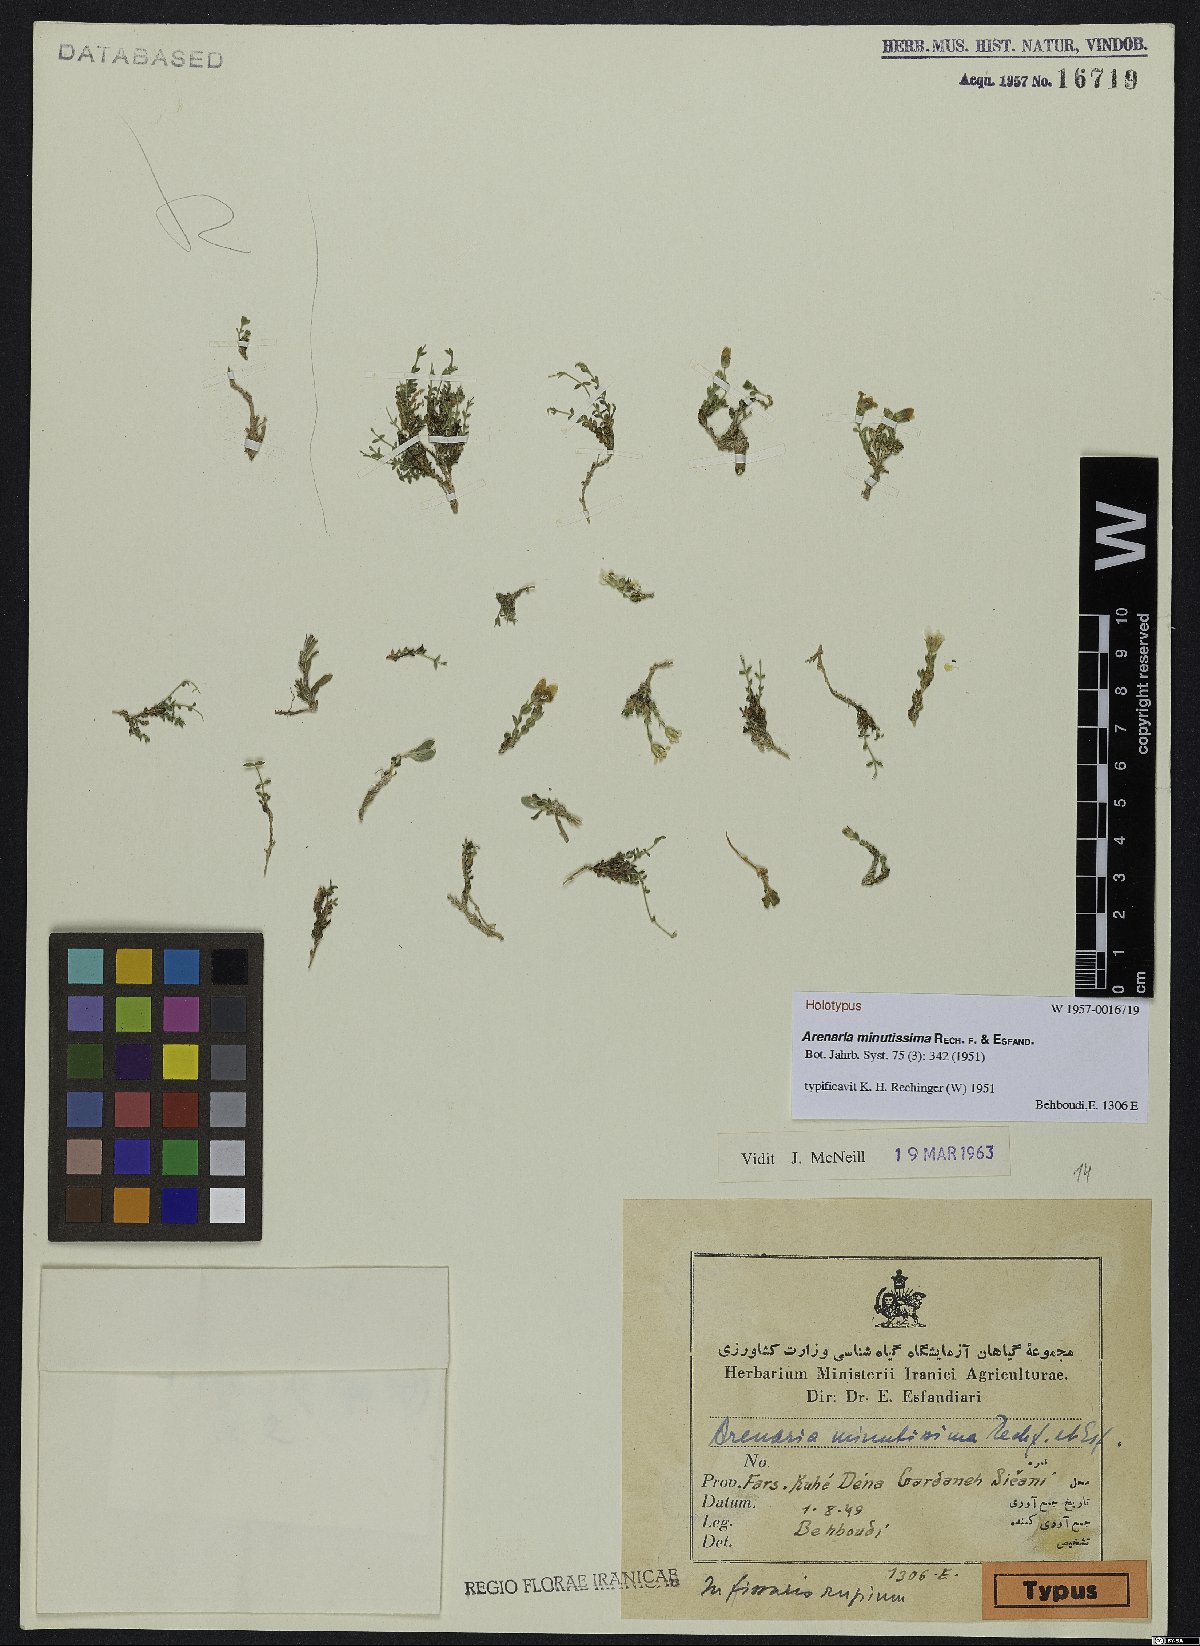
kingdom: Plantae
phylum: Tracheophyta
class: Magnoliopsida
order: Caryophyllales
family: Caryophyllaceae
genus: Arenaria
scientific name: Arenaria minutissima
